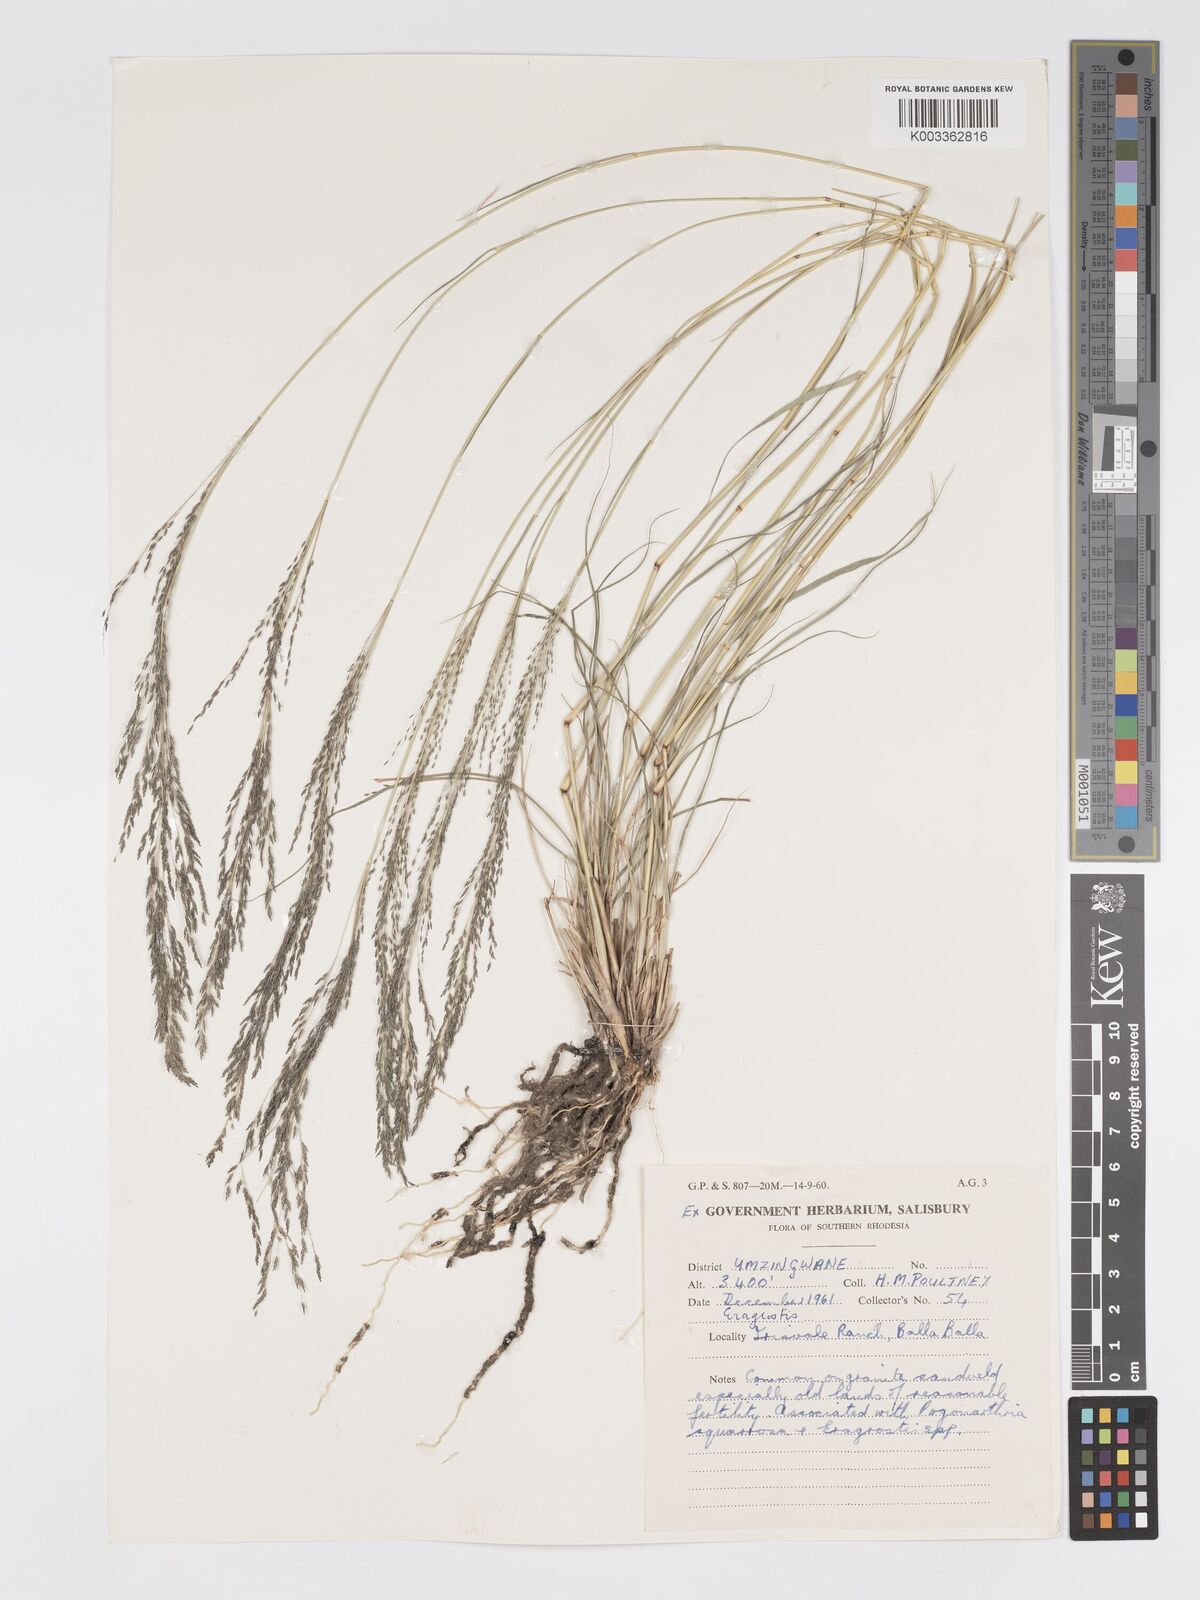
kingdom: Plantae
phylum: Tracheophyta
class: Liliopsida
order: Poales
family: Poaceae
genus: Eragrostis
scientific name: Eragrostis cylindriflora
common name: Cylinderflower lovegrass
